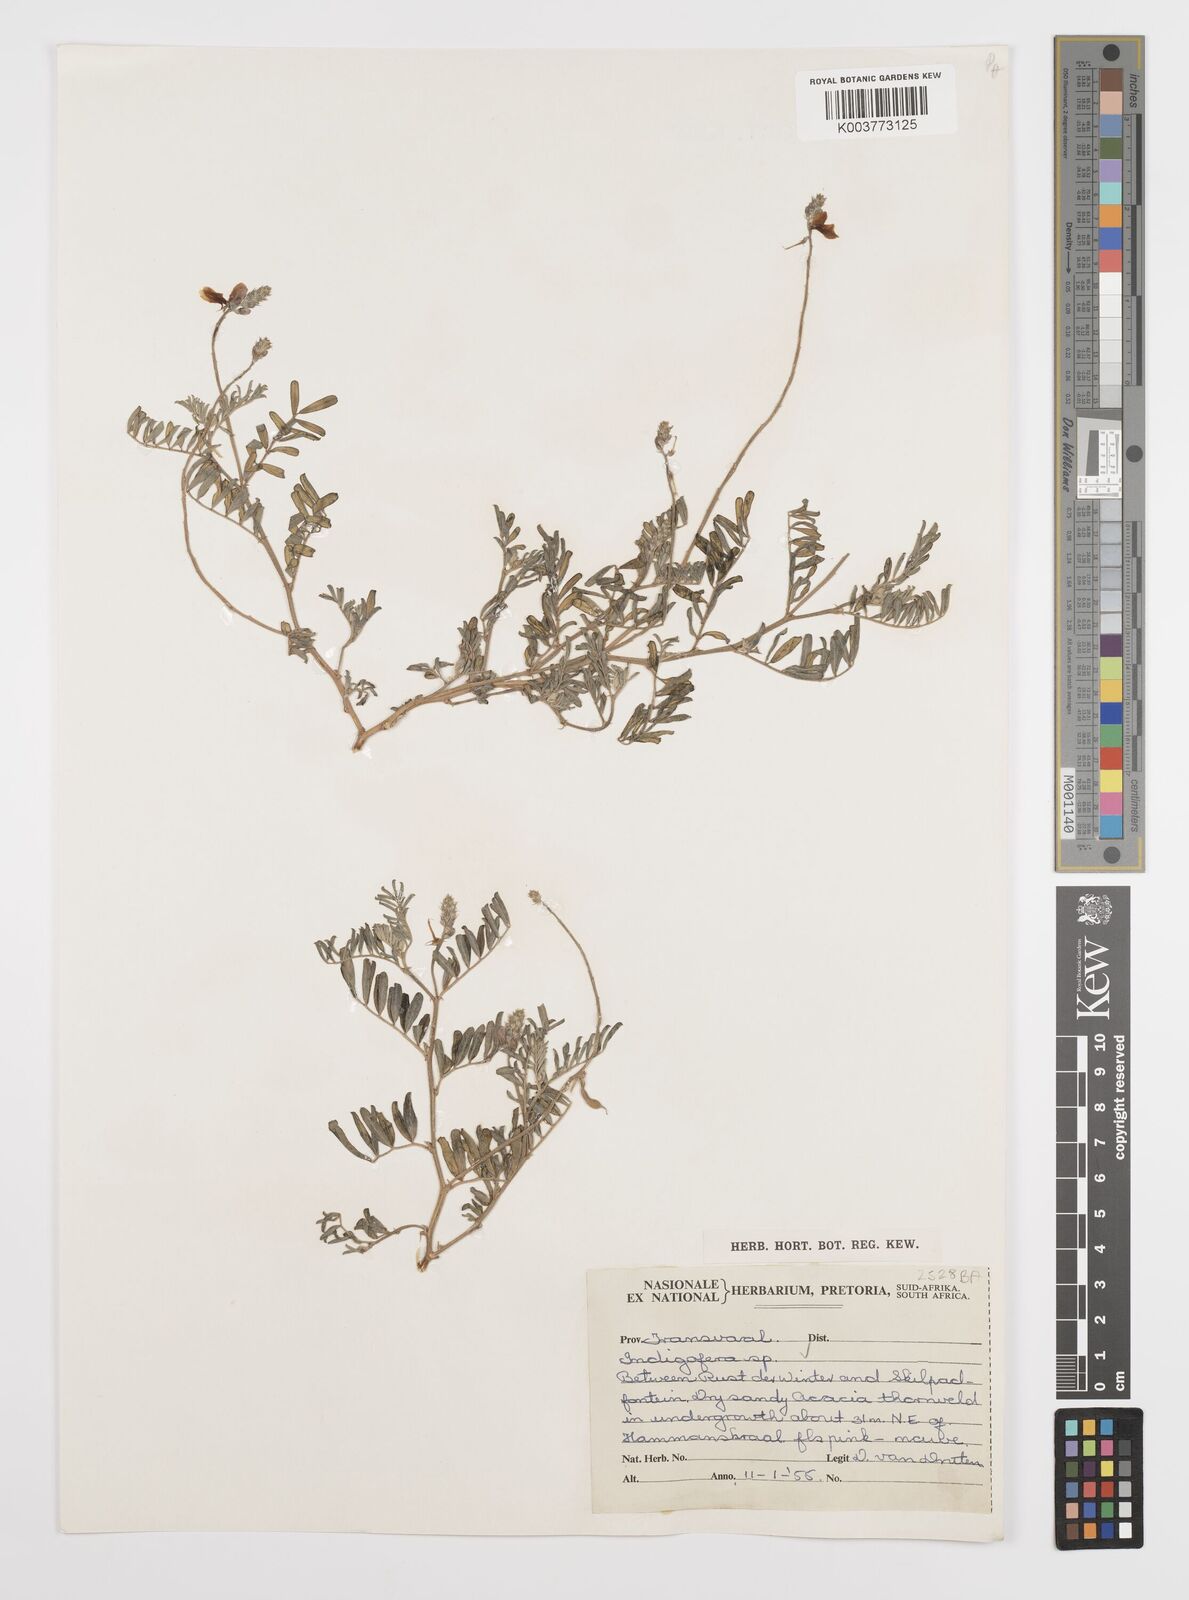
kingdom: Plantae
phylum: Tracheophyta
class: Magnoliopsida
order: Fabales
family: Fabaceae
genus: Indigofera
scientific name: Indigofera
